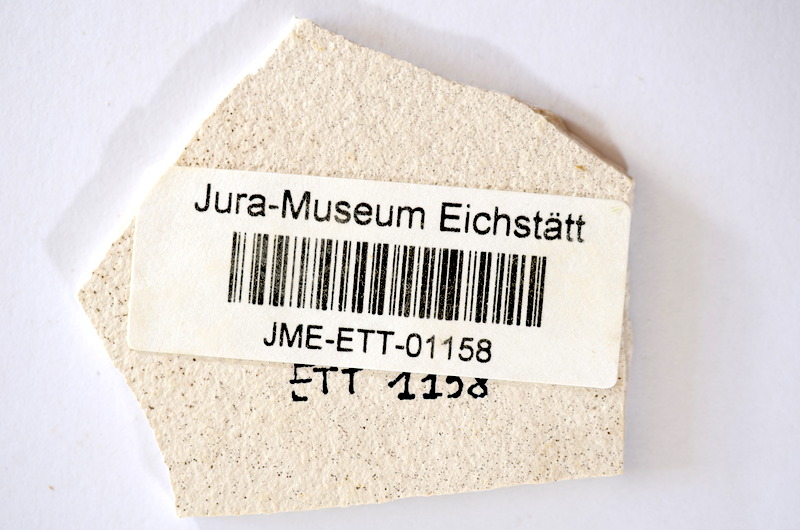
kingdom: Animalia
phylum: Chordata
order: Salmoniformes
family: Orthogonikleithridae
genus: Orthogonikleithrus
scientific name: Orthogonikleithrus hoelli
